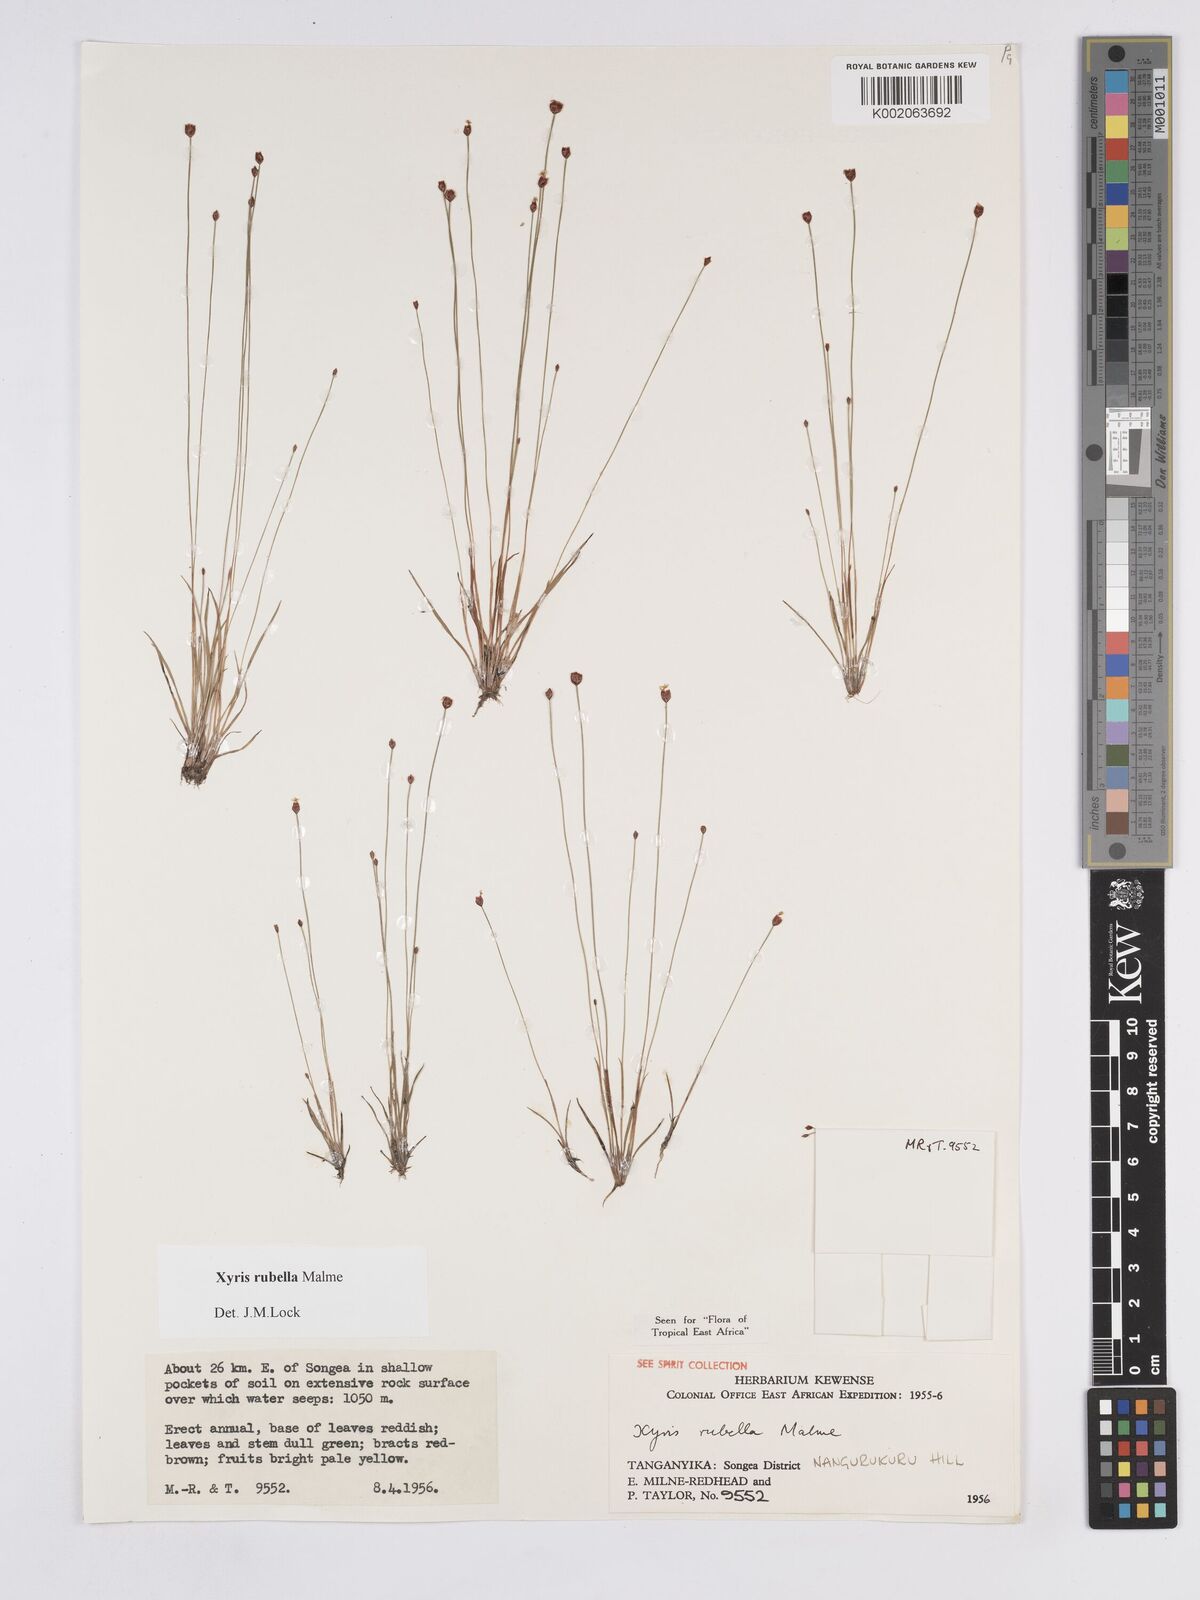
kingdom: Plantae
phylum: Tracheophyta
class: Liliopsida
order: Poales
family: Xyridaceae
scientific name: Xyridaceae
